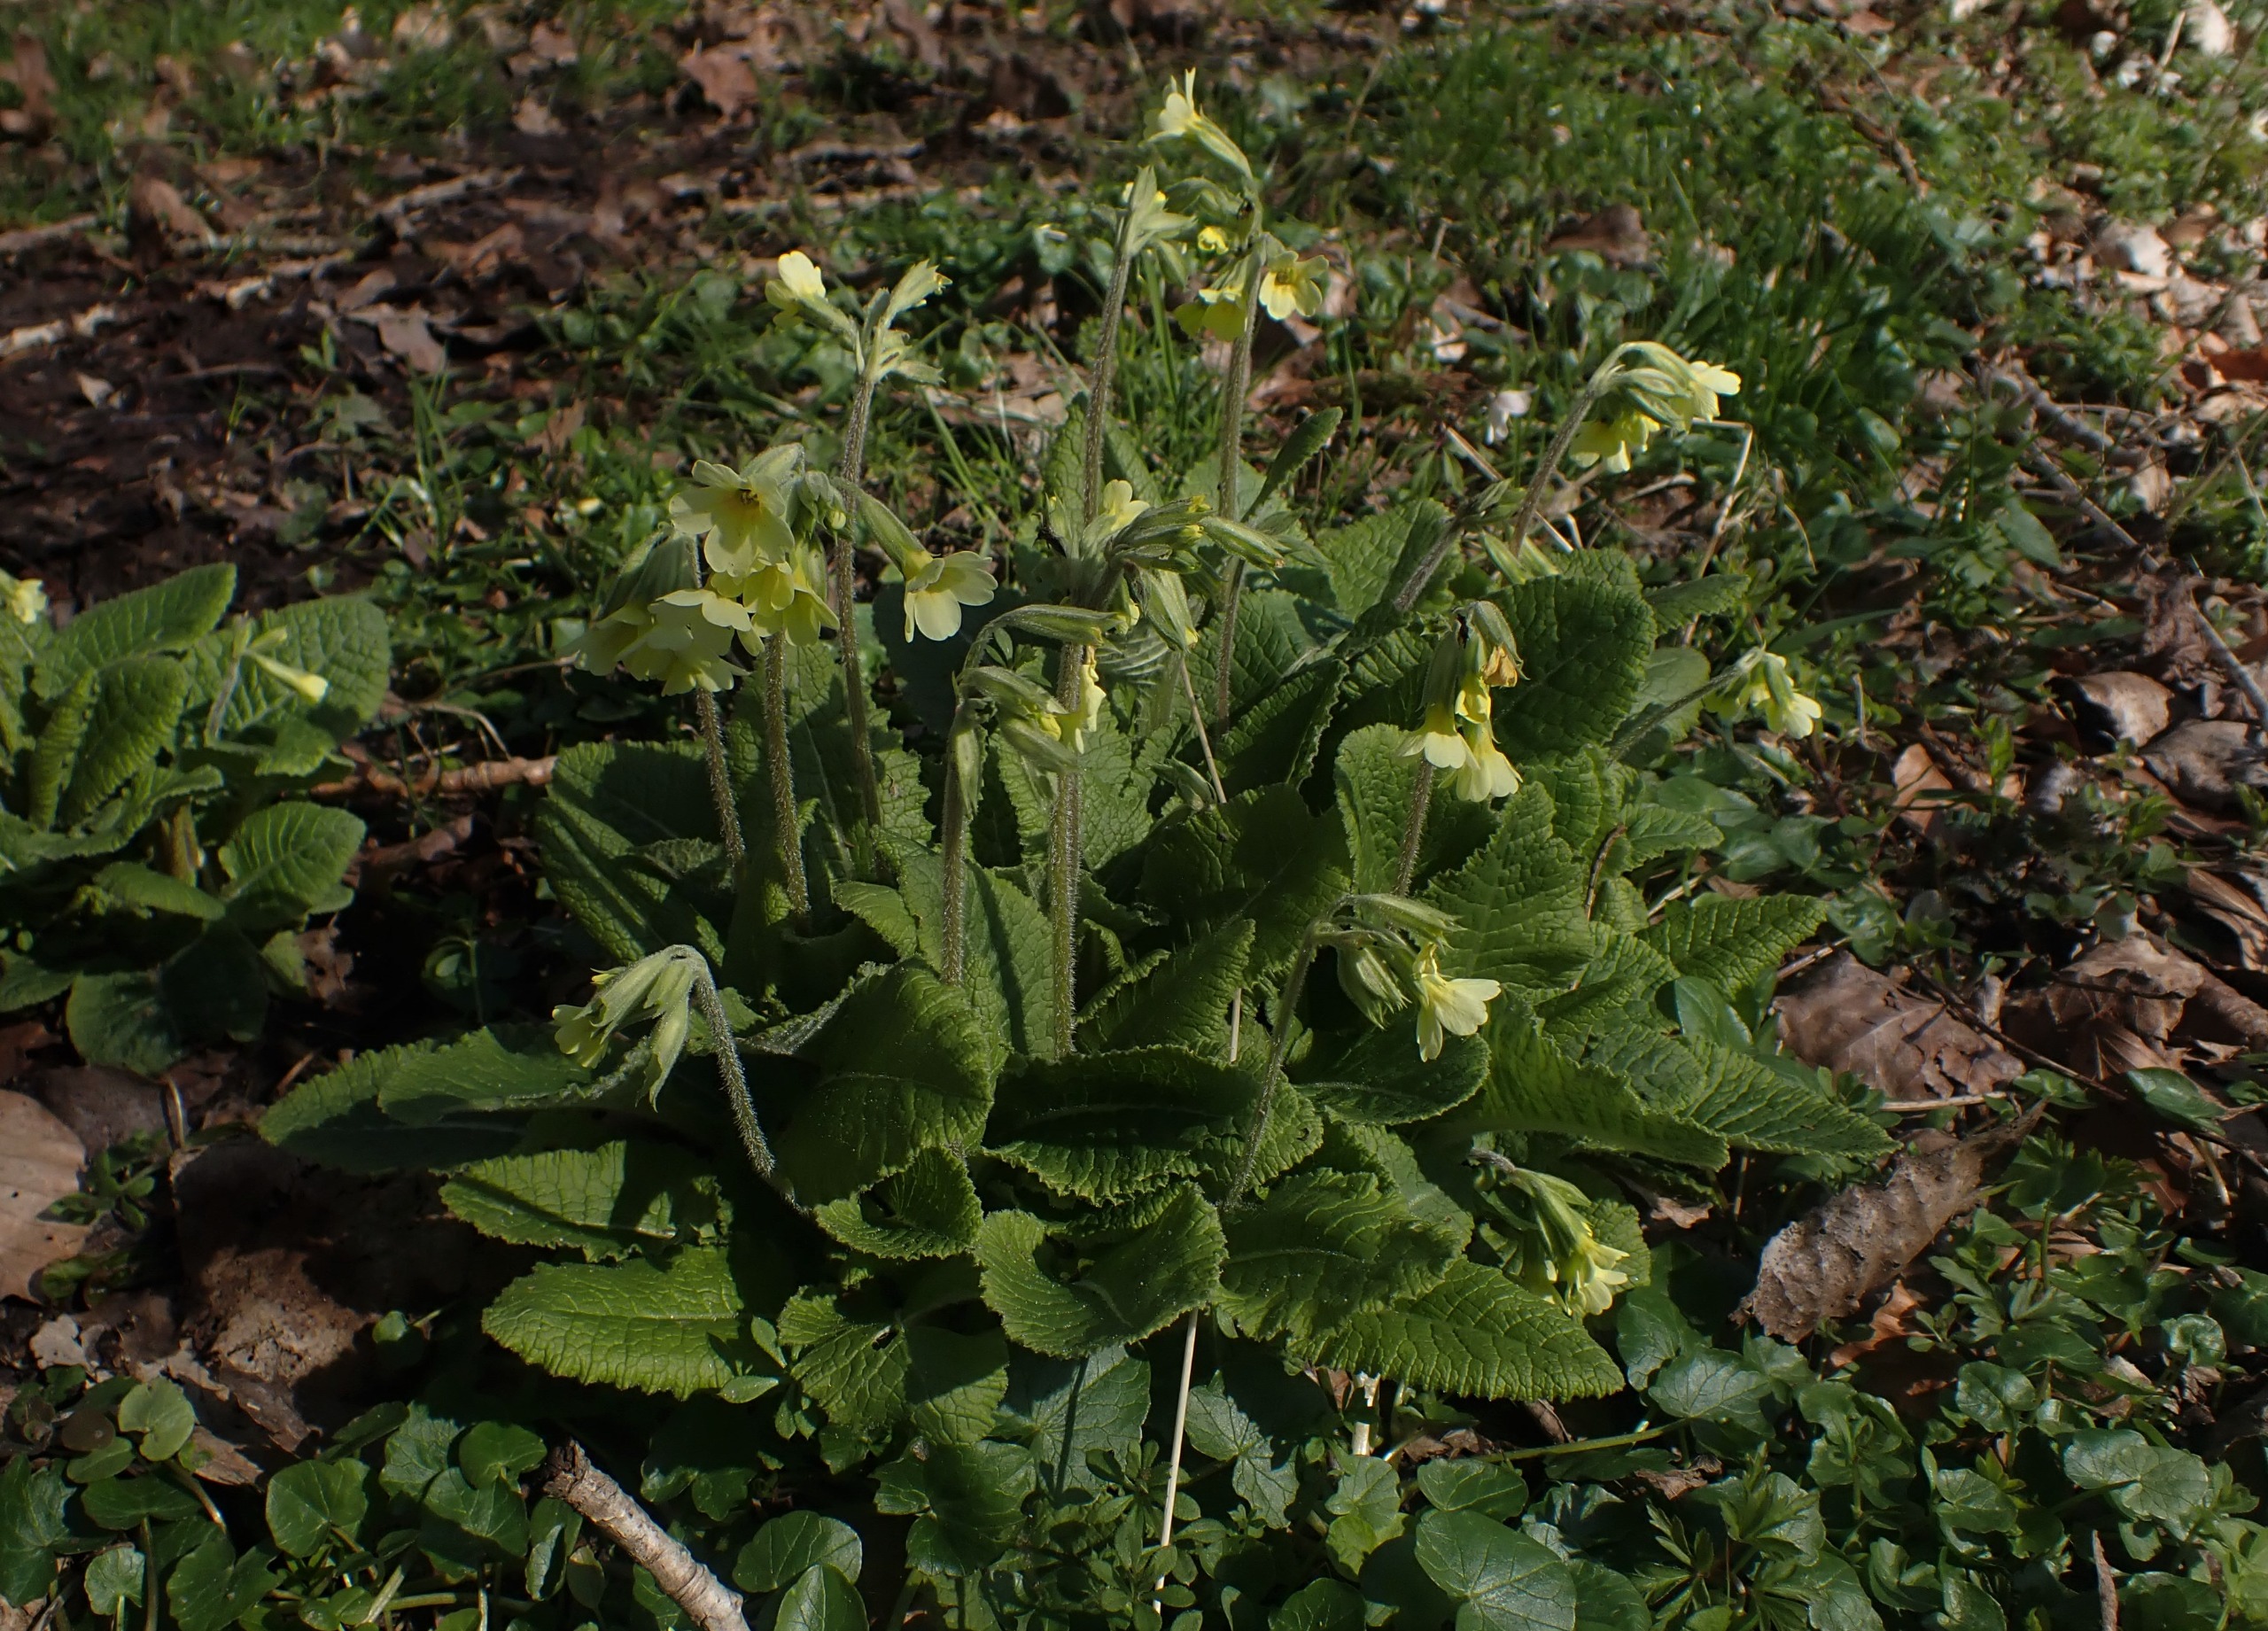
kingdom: Plantae
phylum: Tracheophyta
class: Magnoliopsida
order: Ericales
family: Primulaceae
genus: Primula
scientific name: Primula elatior
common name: Fladkravet kodriver
